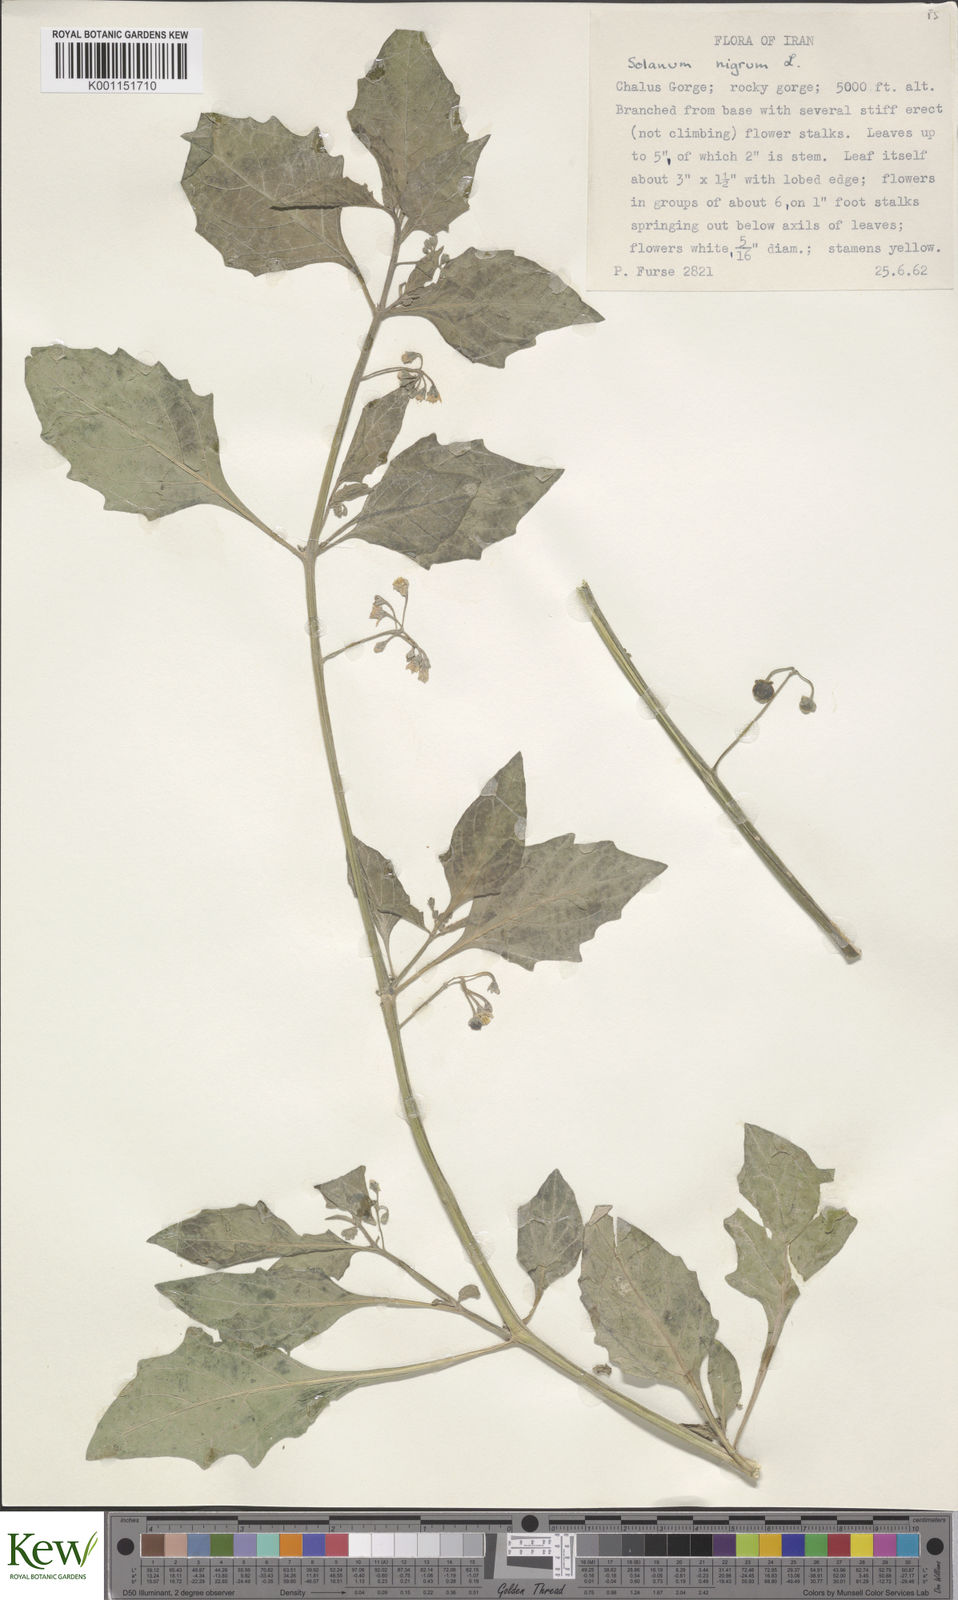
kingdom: Plantae
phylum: Tracheophyta
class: Magnoliopsida
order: Solanales
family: Solanaceae
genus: Solanum
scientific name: Solanum
